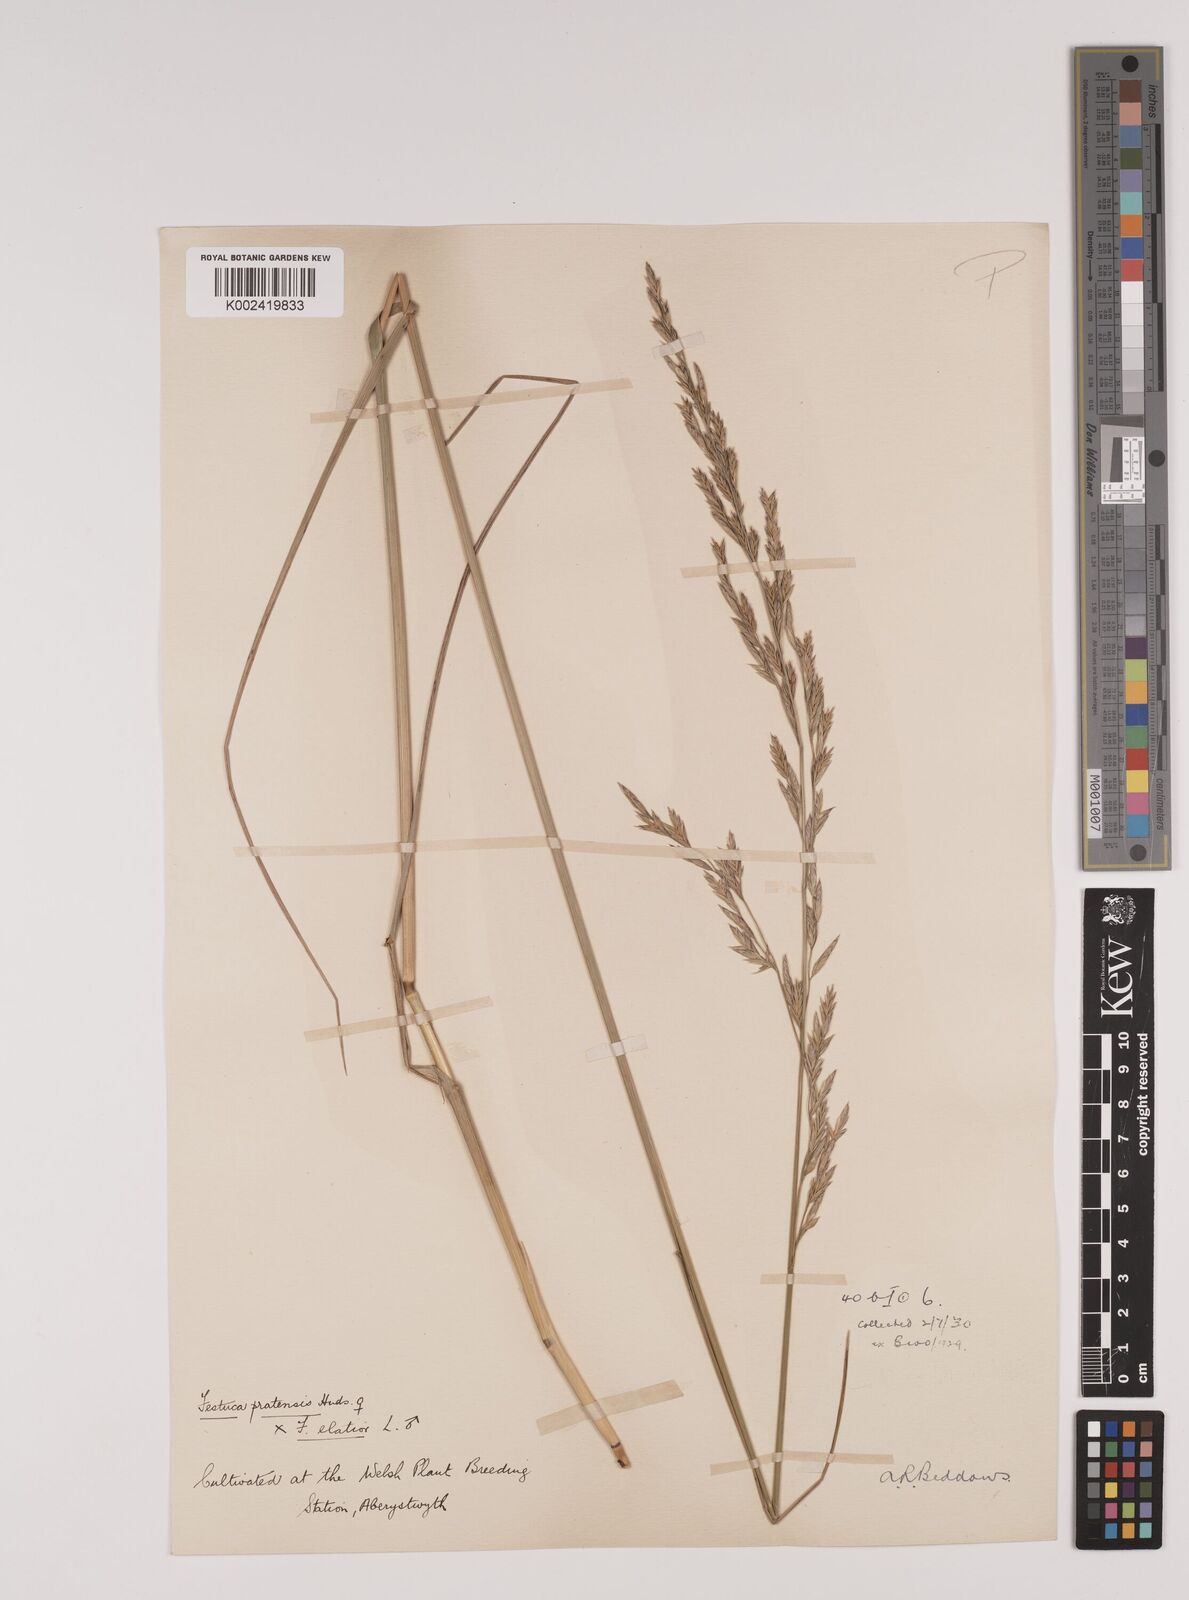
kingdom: Plantae
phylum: Tracheophyta
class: Liliopsida
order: Poales
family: Poaceae
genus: Festuca
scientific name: Festuca rubra
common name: Red fescue
